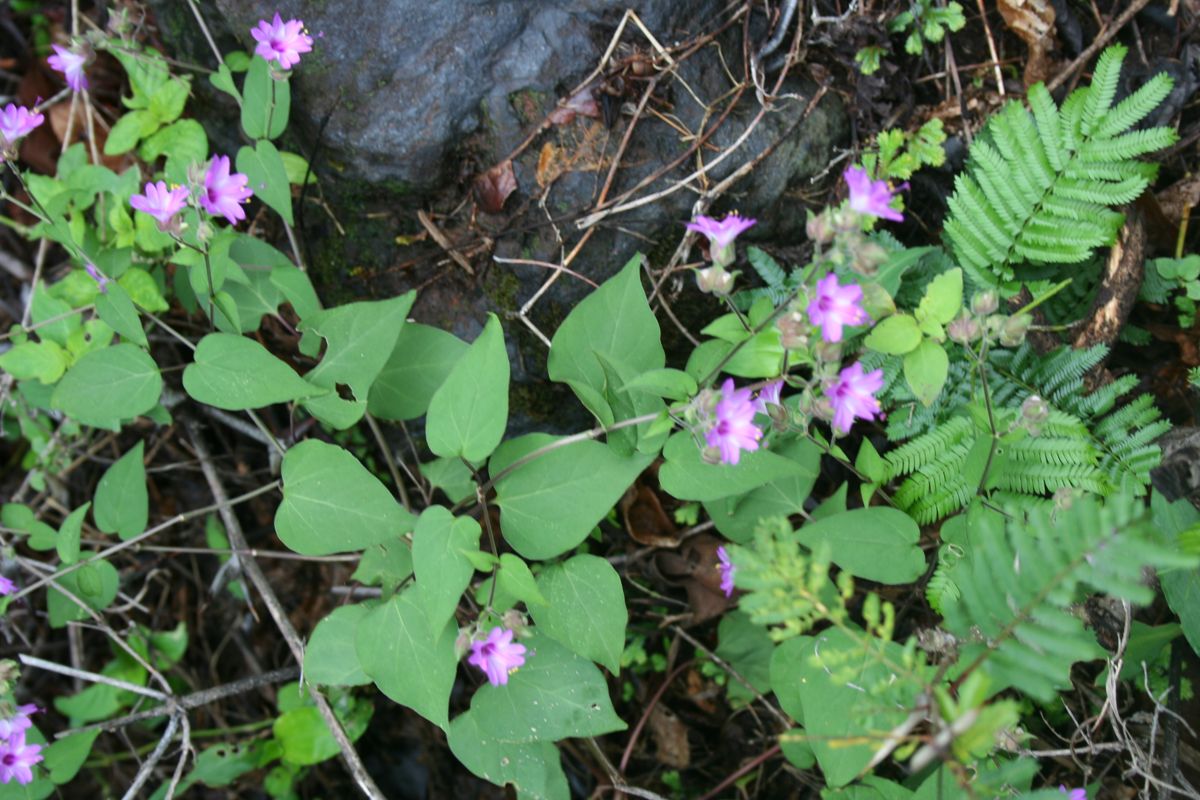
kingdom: Plantae
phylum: Tracheophyta
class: Magnoliopsida
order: Caryophyllales
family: Nyctaginaceae
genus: Mirabilis
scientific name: Mirabilis violacea
